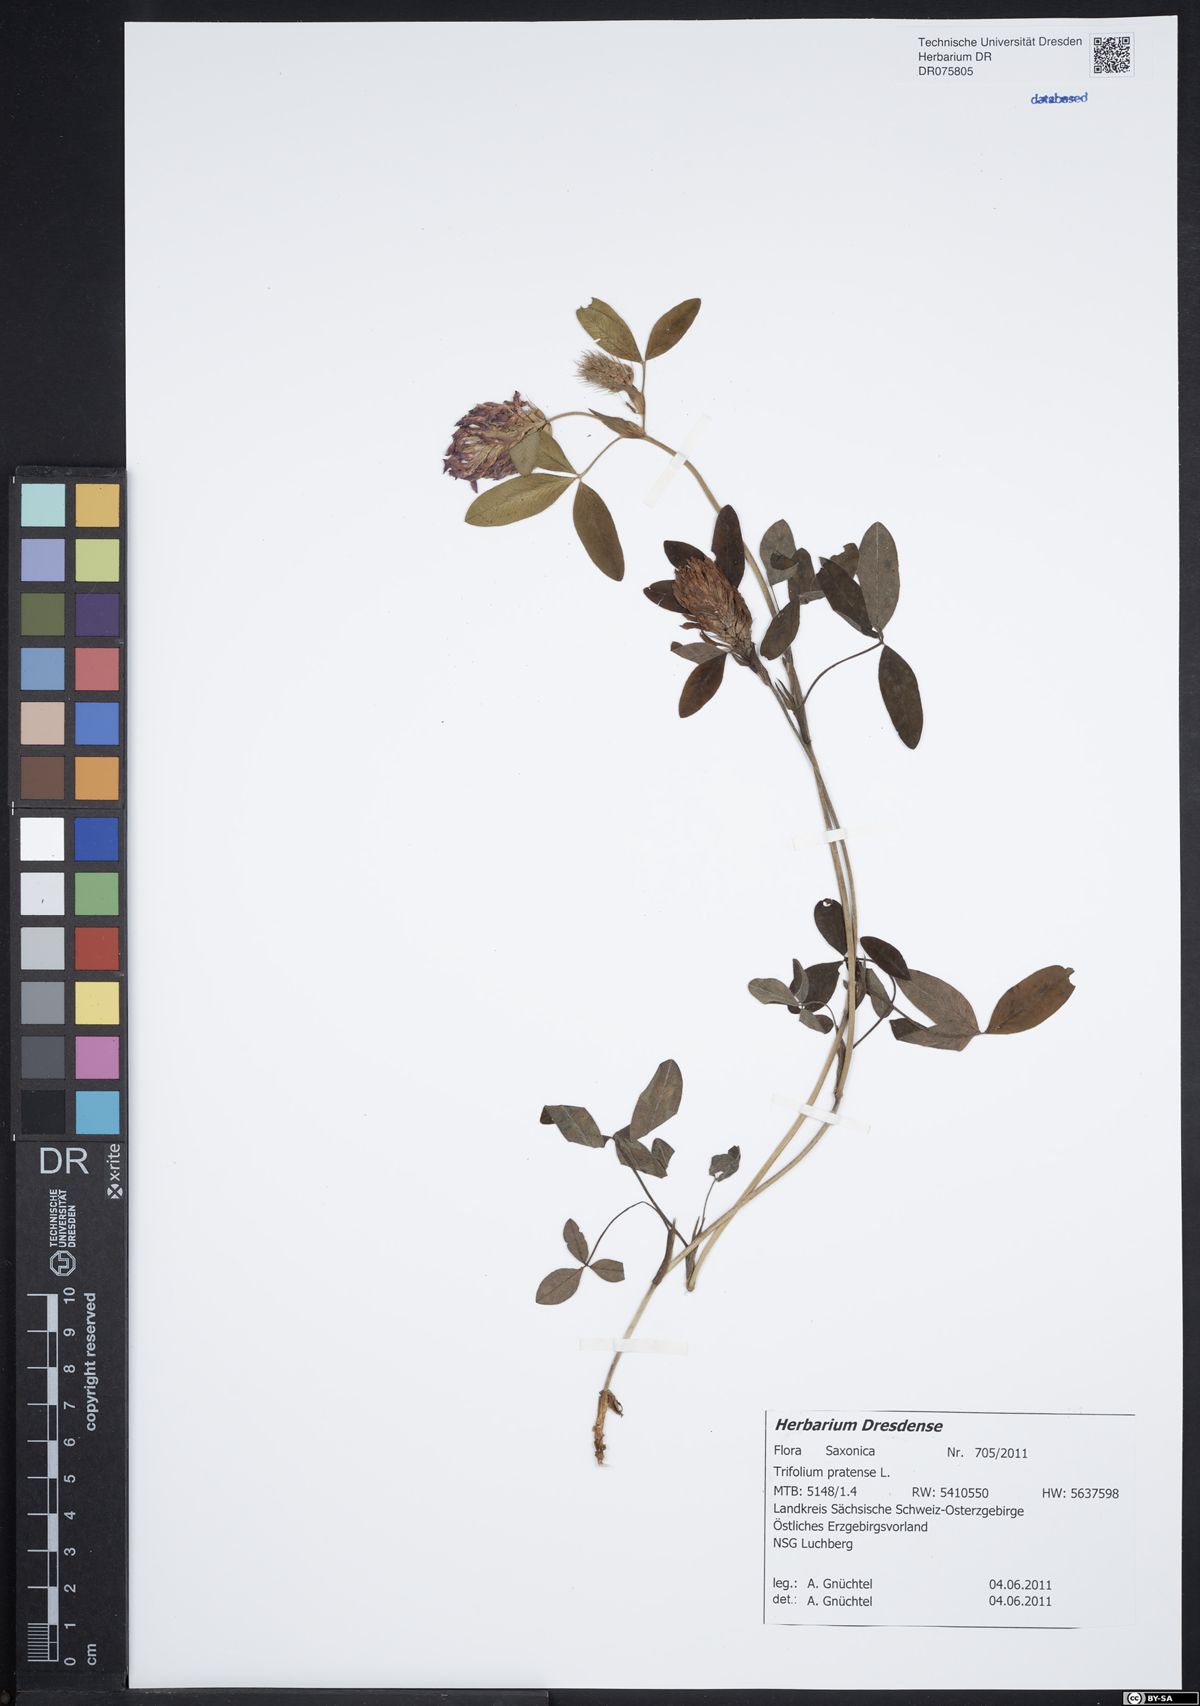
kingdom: Plantae
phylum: Tracheophyta
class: Magnoliopsida
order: Fabales
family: Fabaceae
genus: Trifolium
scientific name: Trifolium pratense
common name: Red clover
